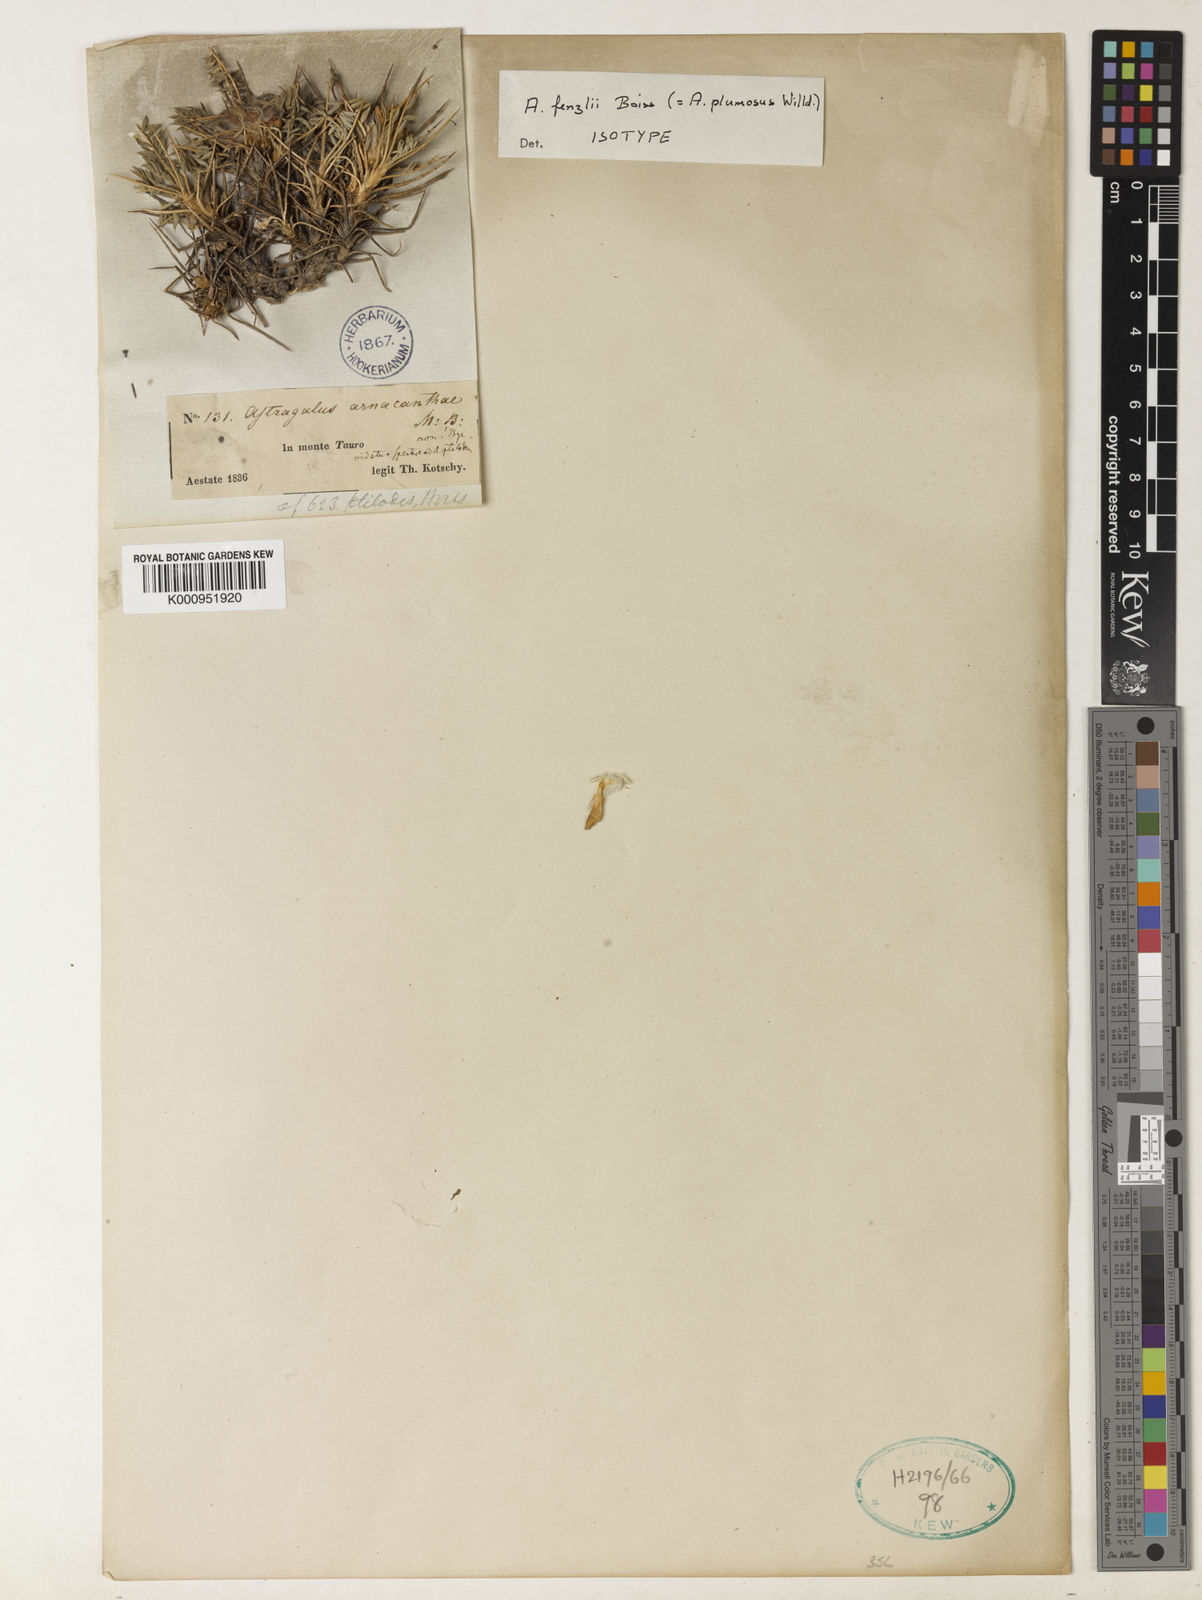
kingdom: Plantae
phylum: Tracheophyta
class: Magnoliopsida
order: Fabales
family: Fabaceae
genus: Astragalus
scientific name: Astragalus plumosus
